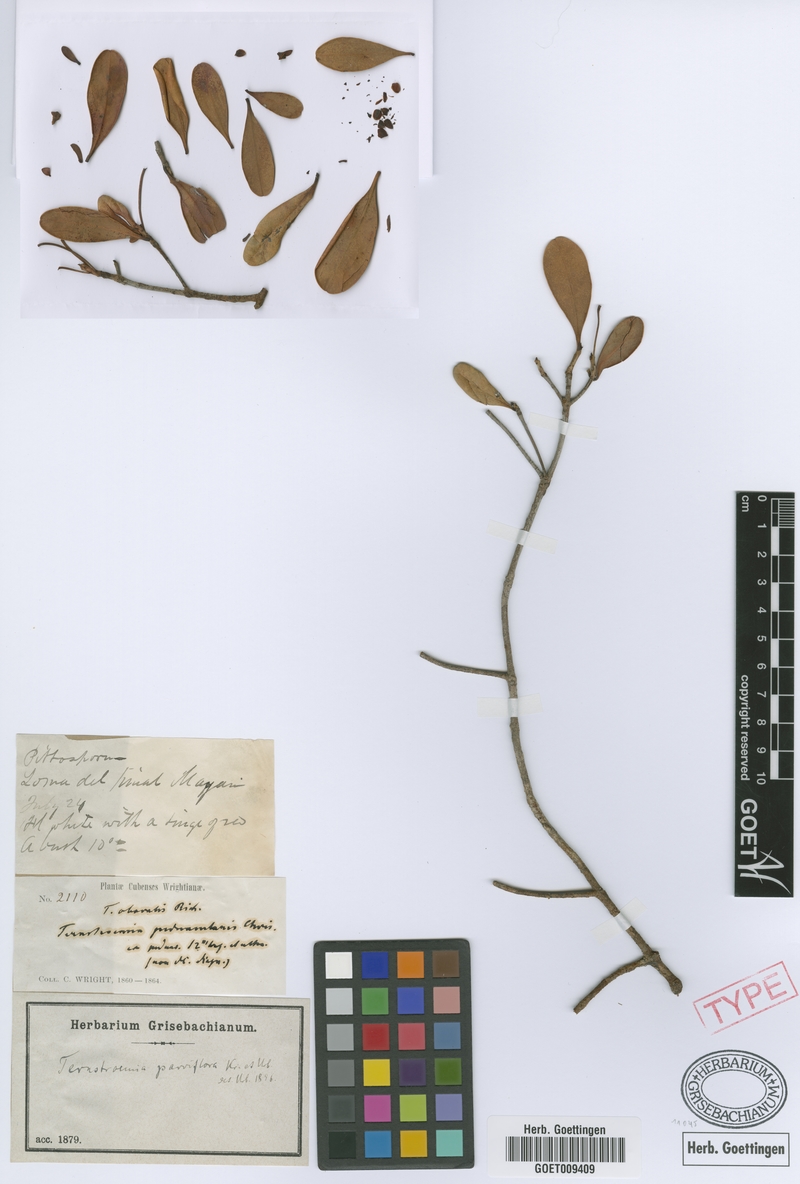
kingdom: Plantae
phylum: Tracheophyta
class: Magnoliopsida
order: Ericales
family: Pentaphylacaceae
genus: Ternstroemia
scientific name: Ternstroemia parviflora
